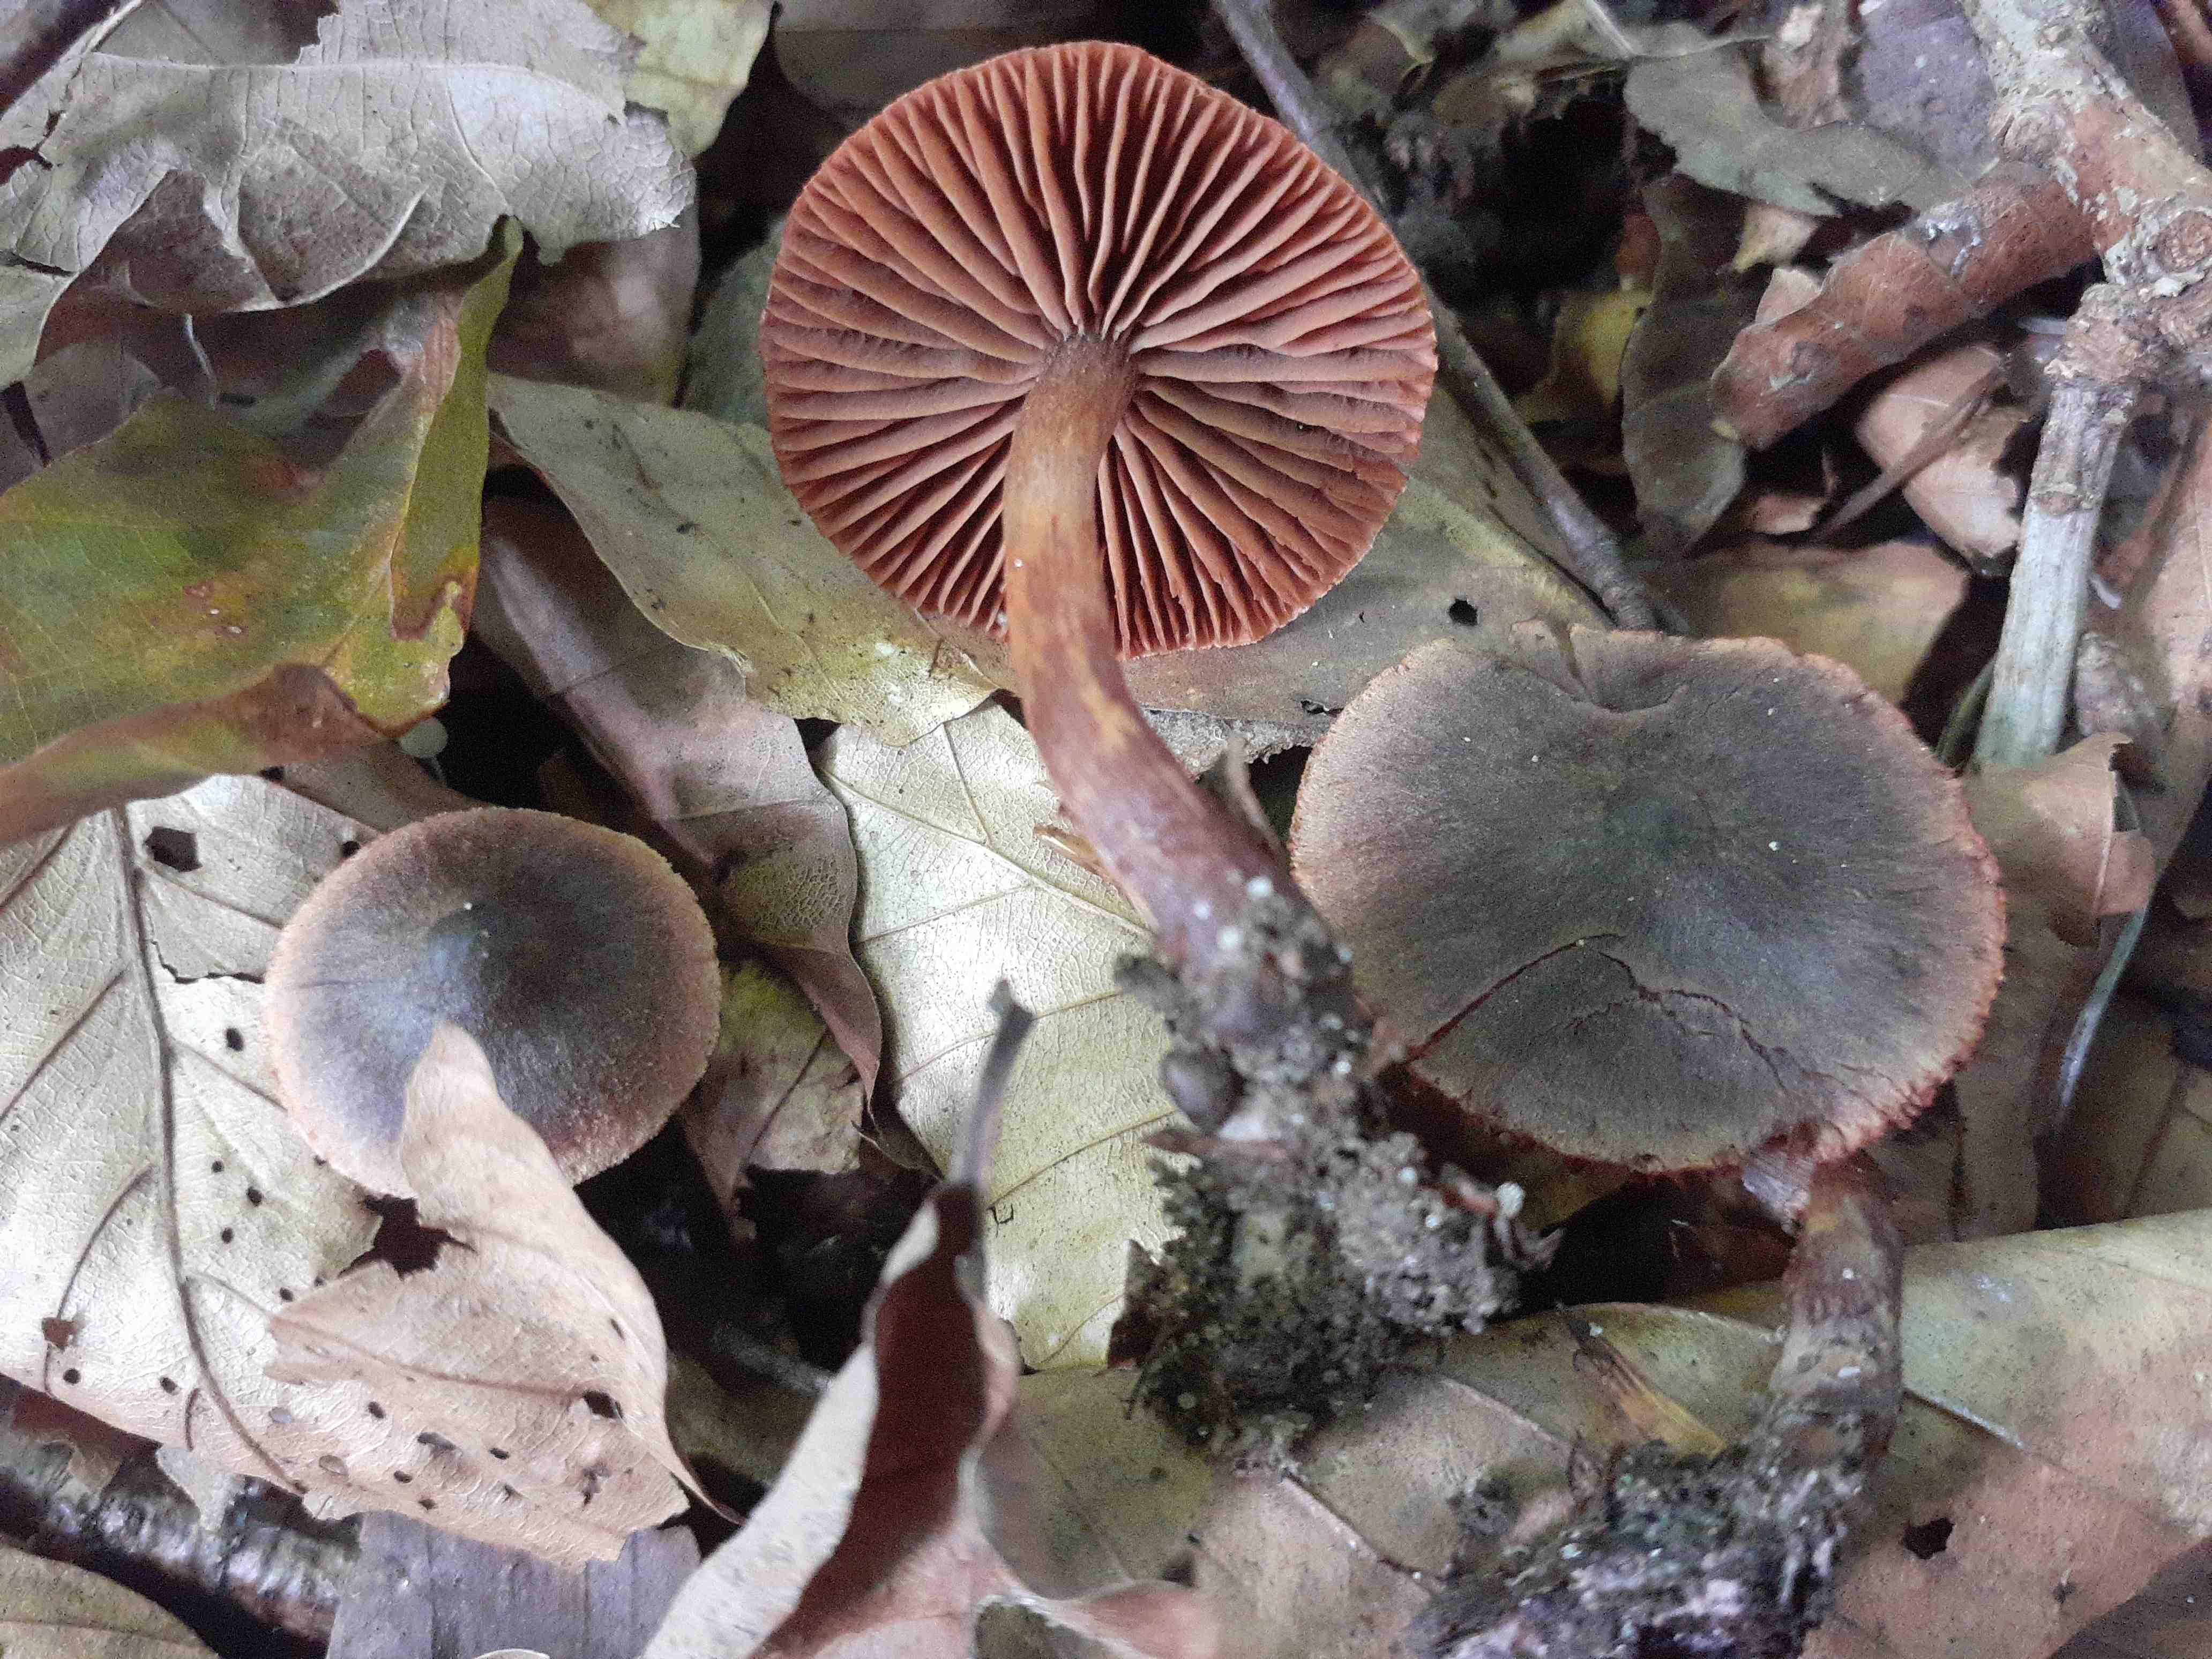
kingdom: Fungi
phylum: Basidiomycota
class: Agaricomycetes
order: Agaricales
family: Cortinariaceae
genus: Cortinarius
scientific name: Cortinarius anthracinus
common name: purpursort slørhat
